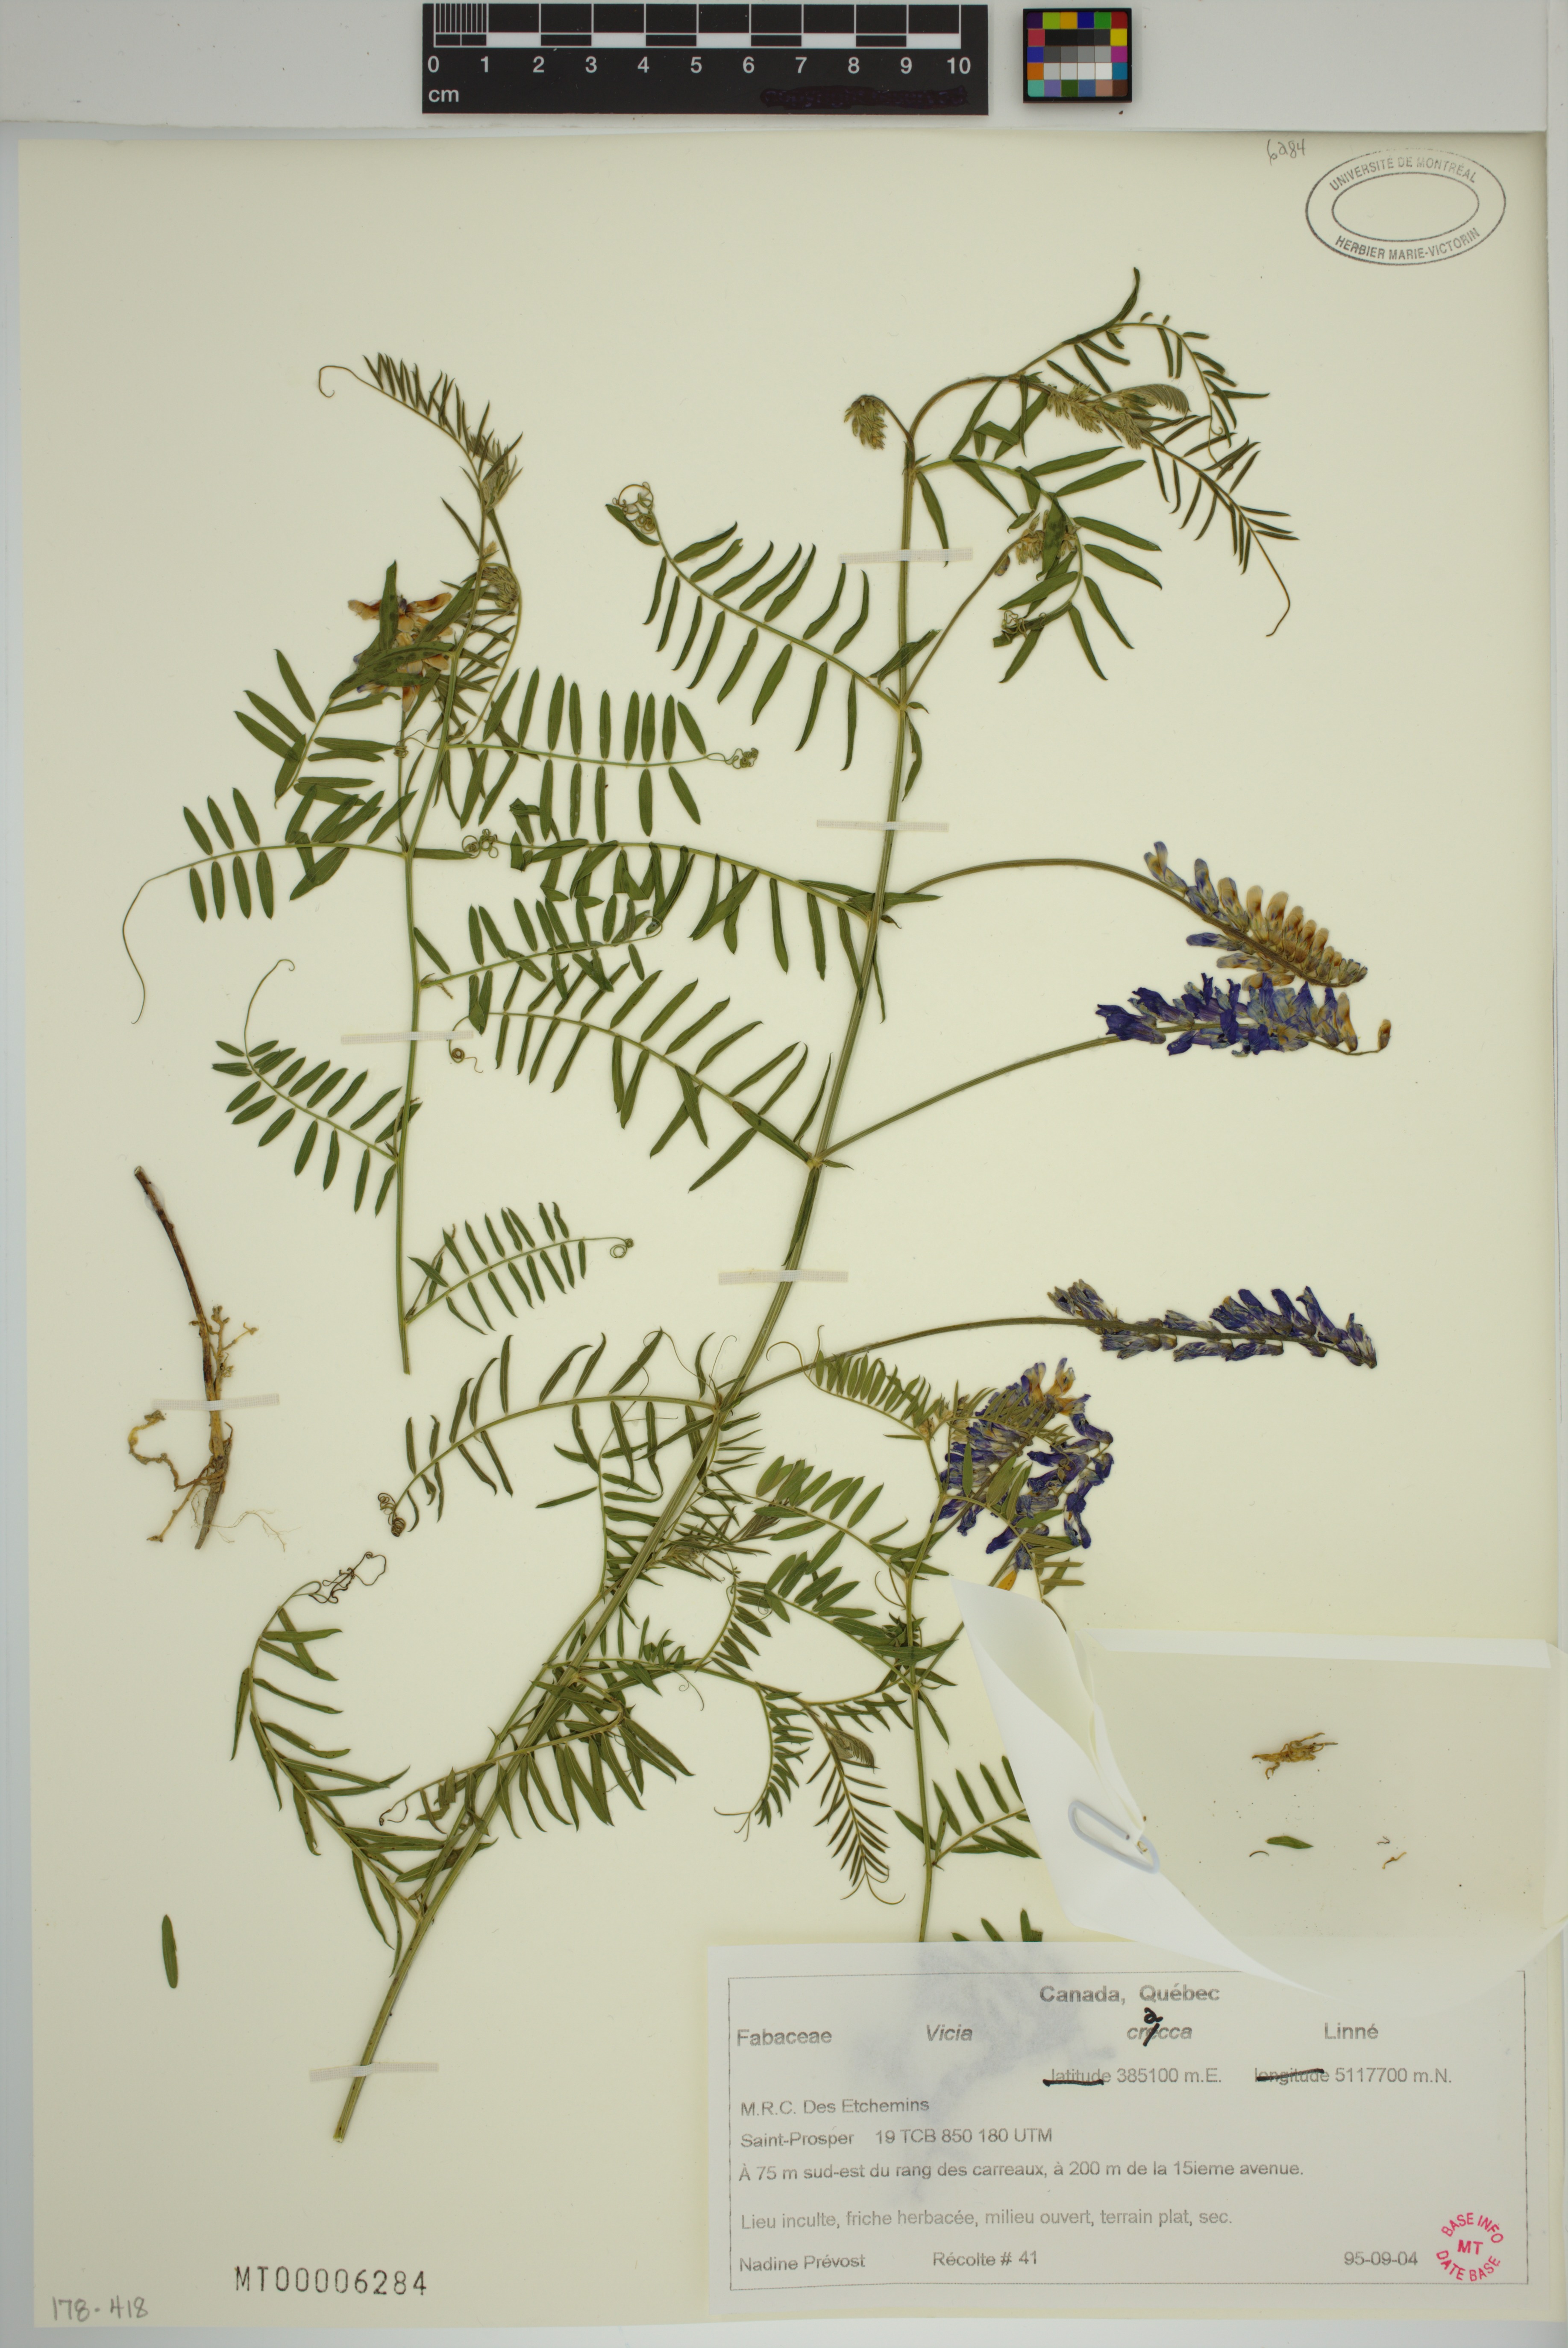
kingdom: Plantae
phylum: Tracheophyta
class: Magnoliopsida
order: Fabales
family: Fabaceae
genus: Vicia
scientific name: Vicia cracca
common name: Bird vetch
